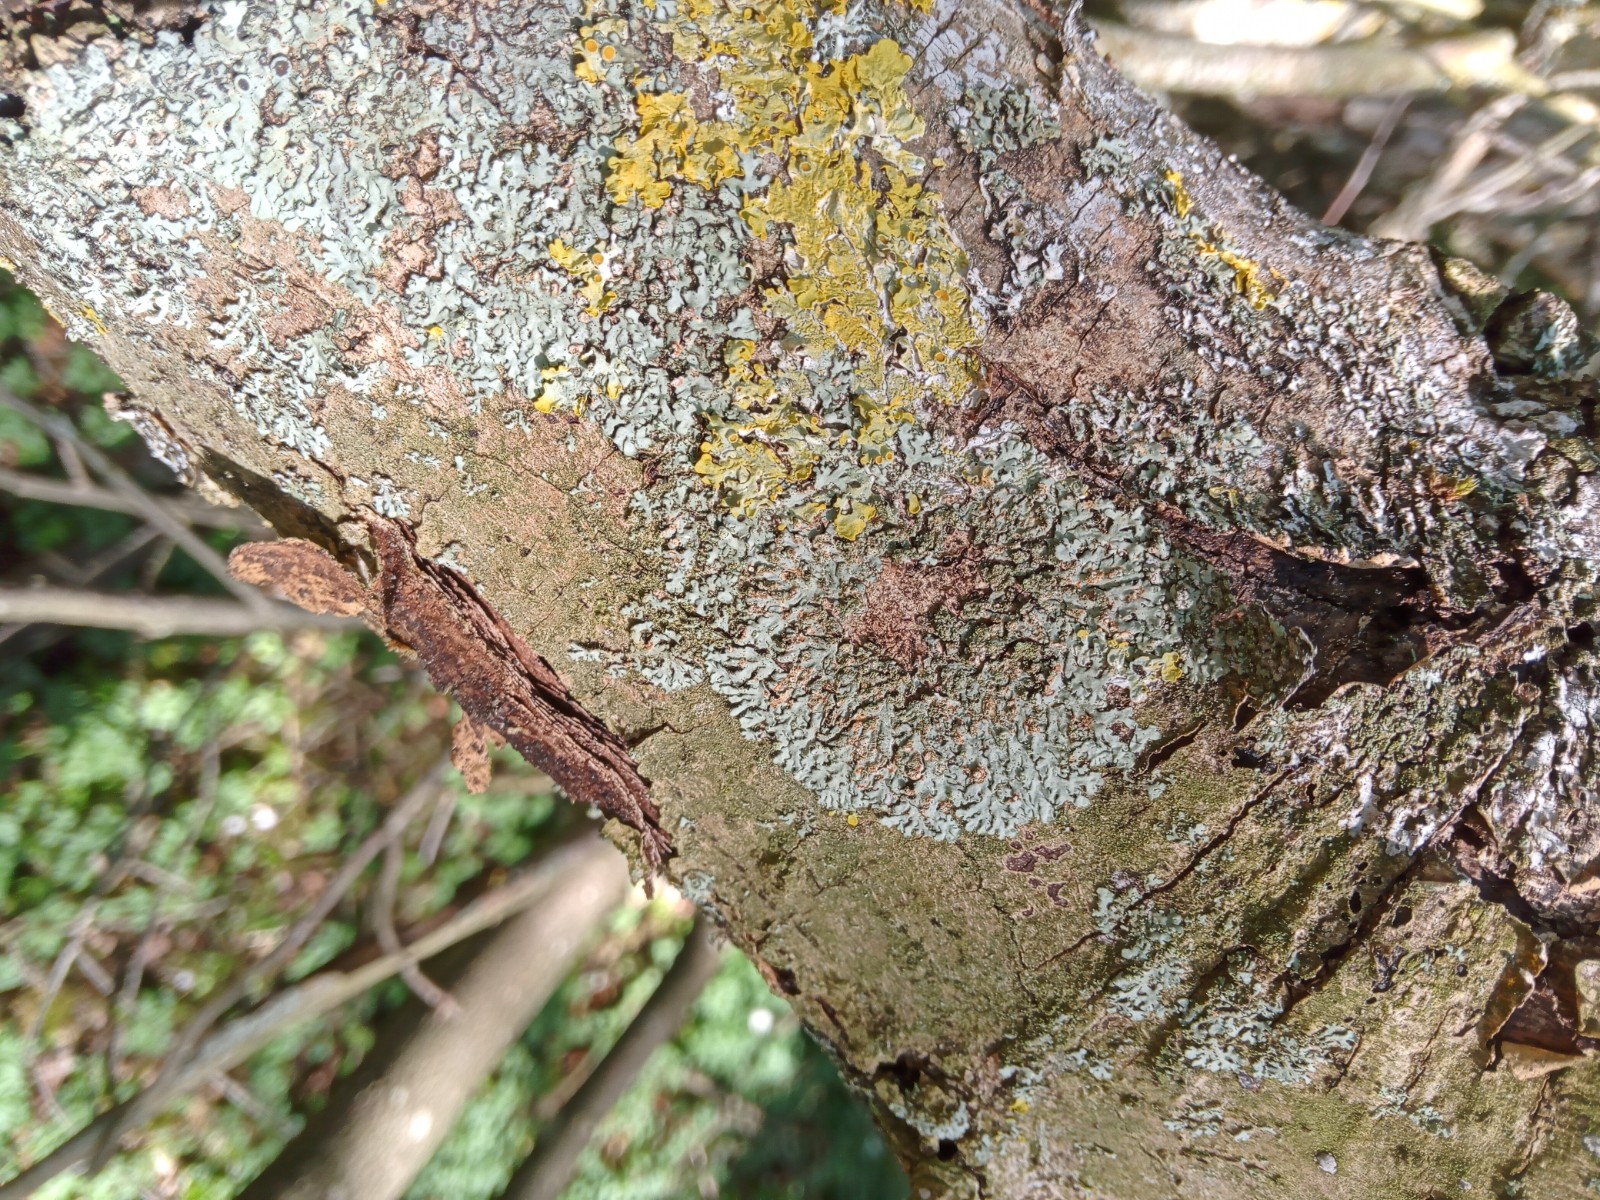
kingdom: Fungi
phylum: Ascomycota
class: Lecanoromycetes
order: Caliciales
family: Physciaceae
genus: Phaeophyscia
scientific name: Phaeophyscia orbicularis
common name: grågrøn rosetlav
